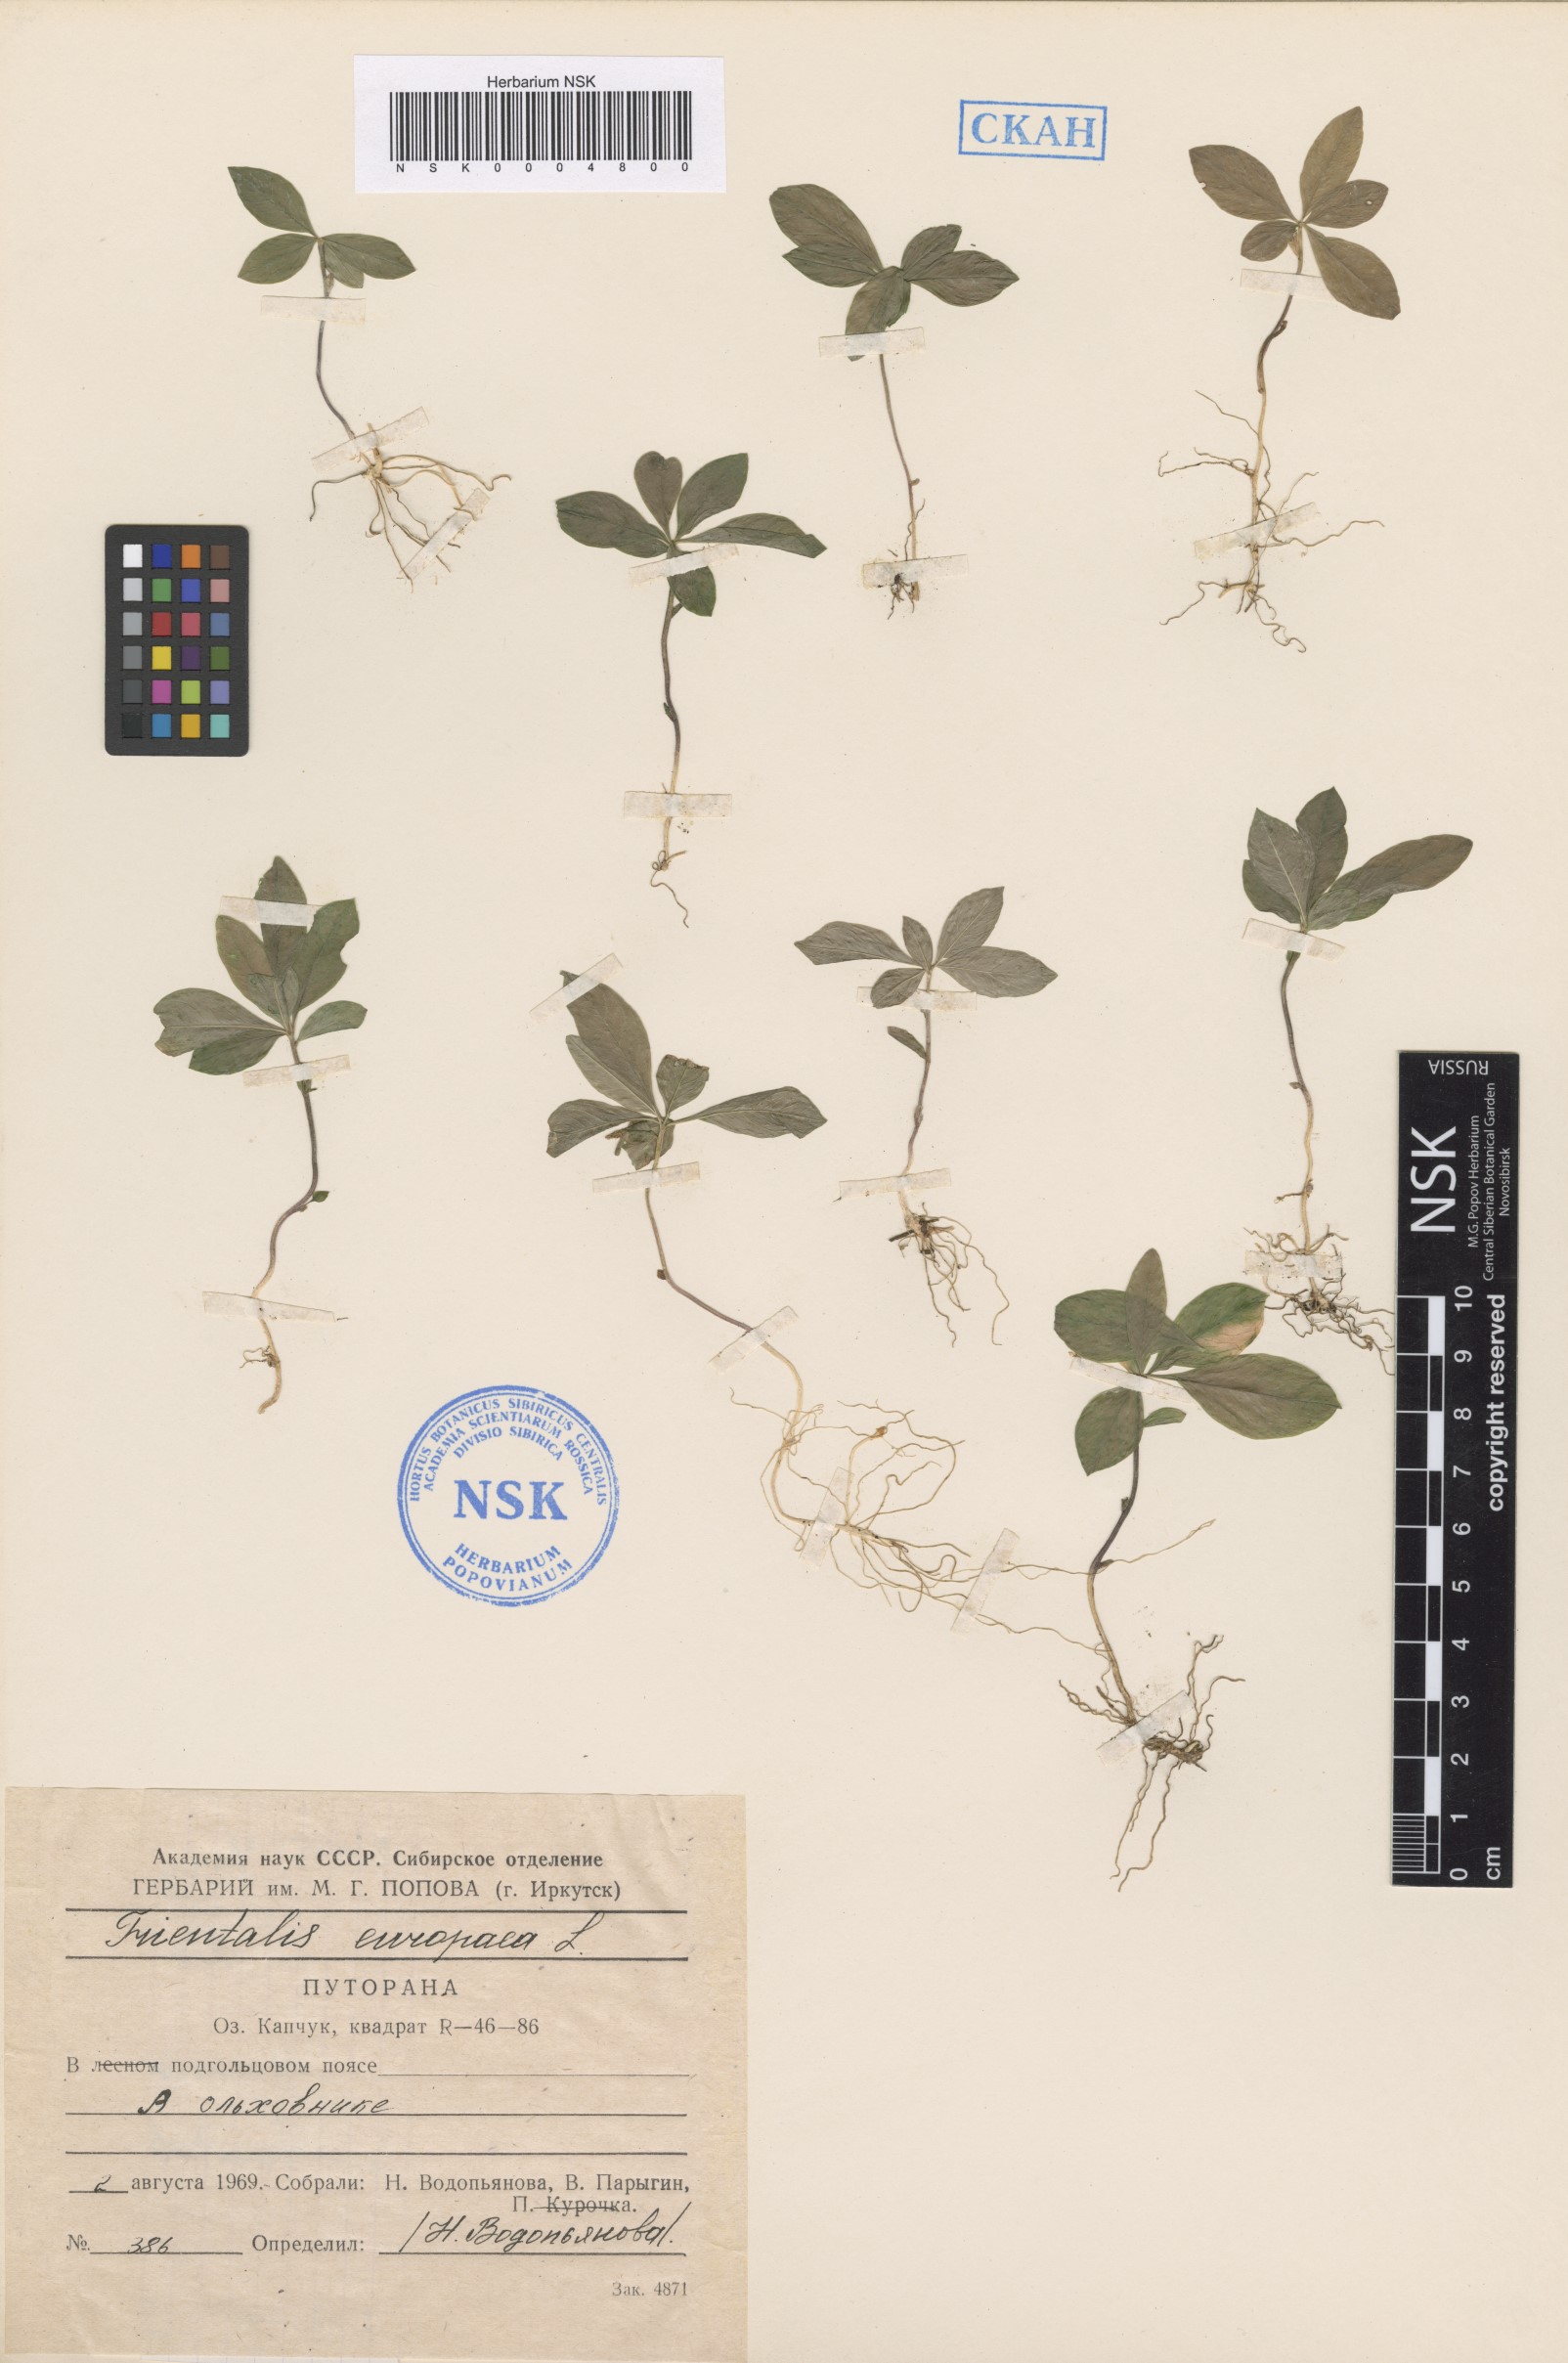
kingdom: Plantae
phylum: Tracheophyta
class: Magnoliopsida
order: Ericales
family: Primulaceae
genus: Lysimachia
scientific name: Lysimachia europaea
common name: Arctic starflower
